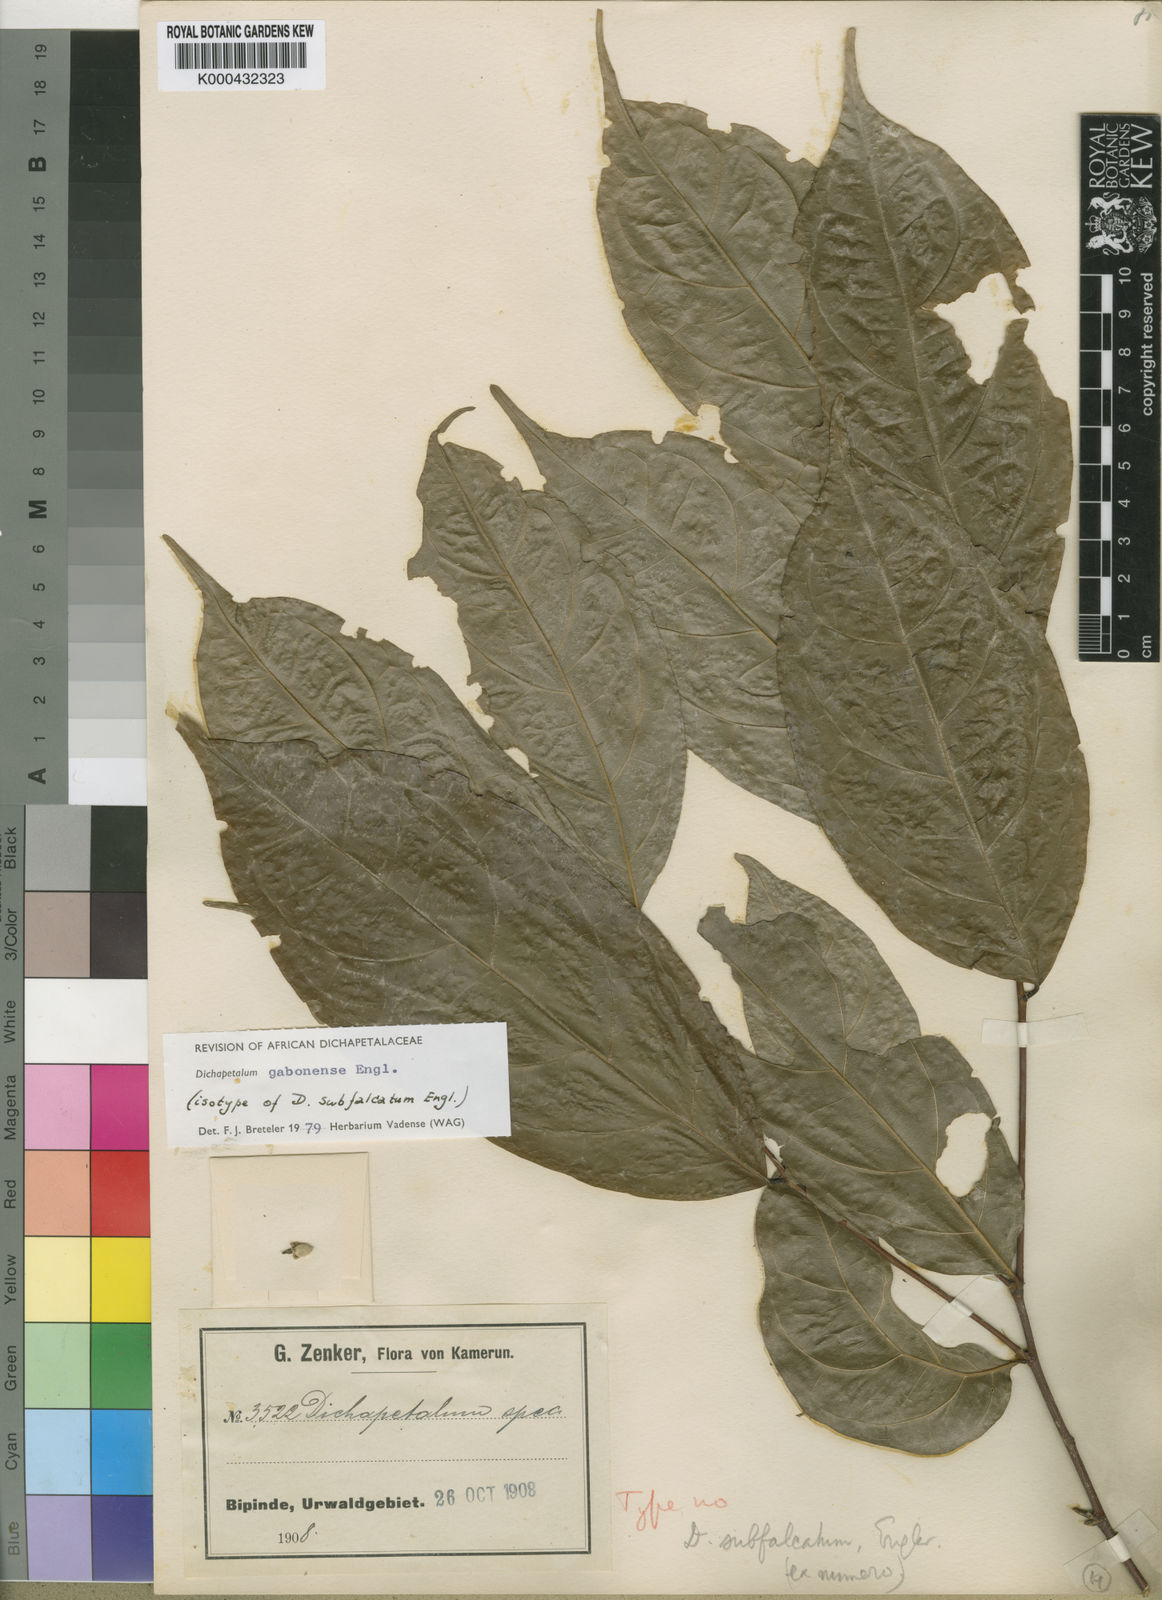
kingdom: Plantae
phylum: Tracheophyta
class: Magnoliopsida
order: Malpighiales
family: Dichapetalaceae
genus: Dichapetalum
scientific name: Dichapetalum gabonense
